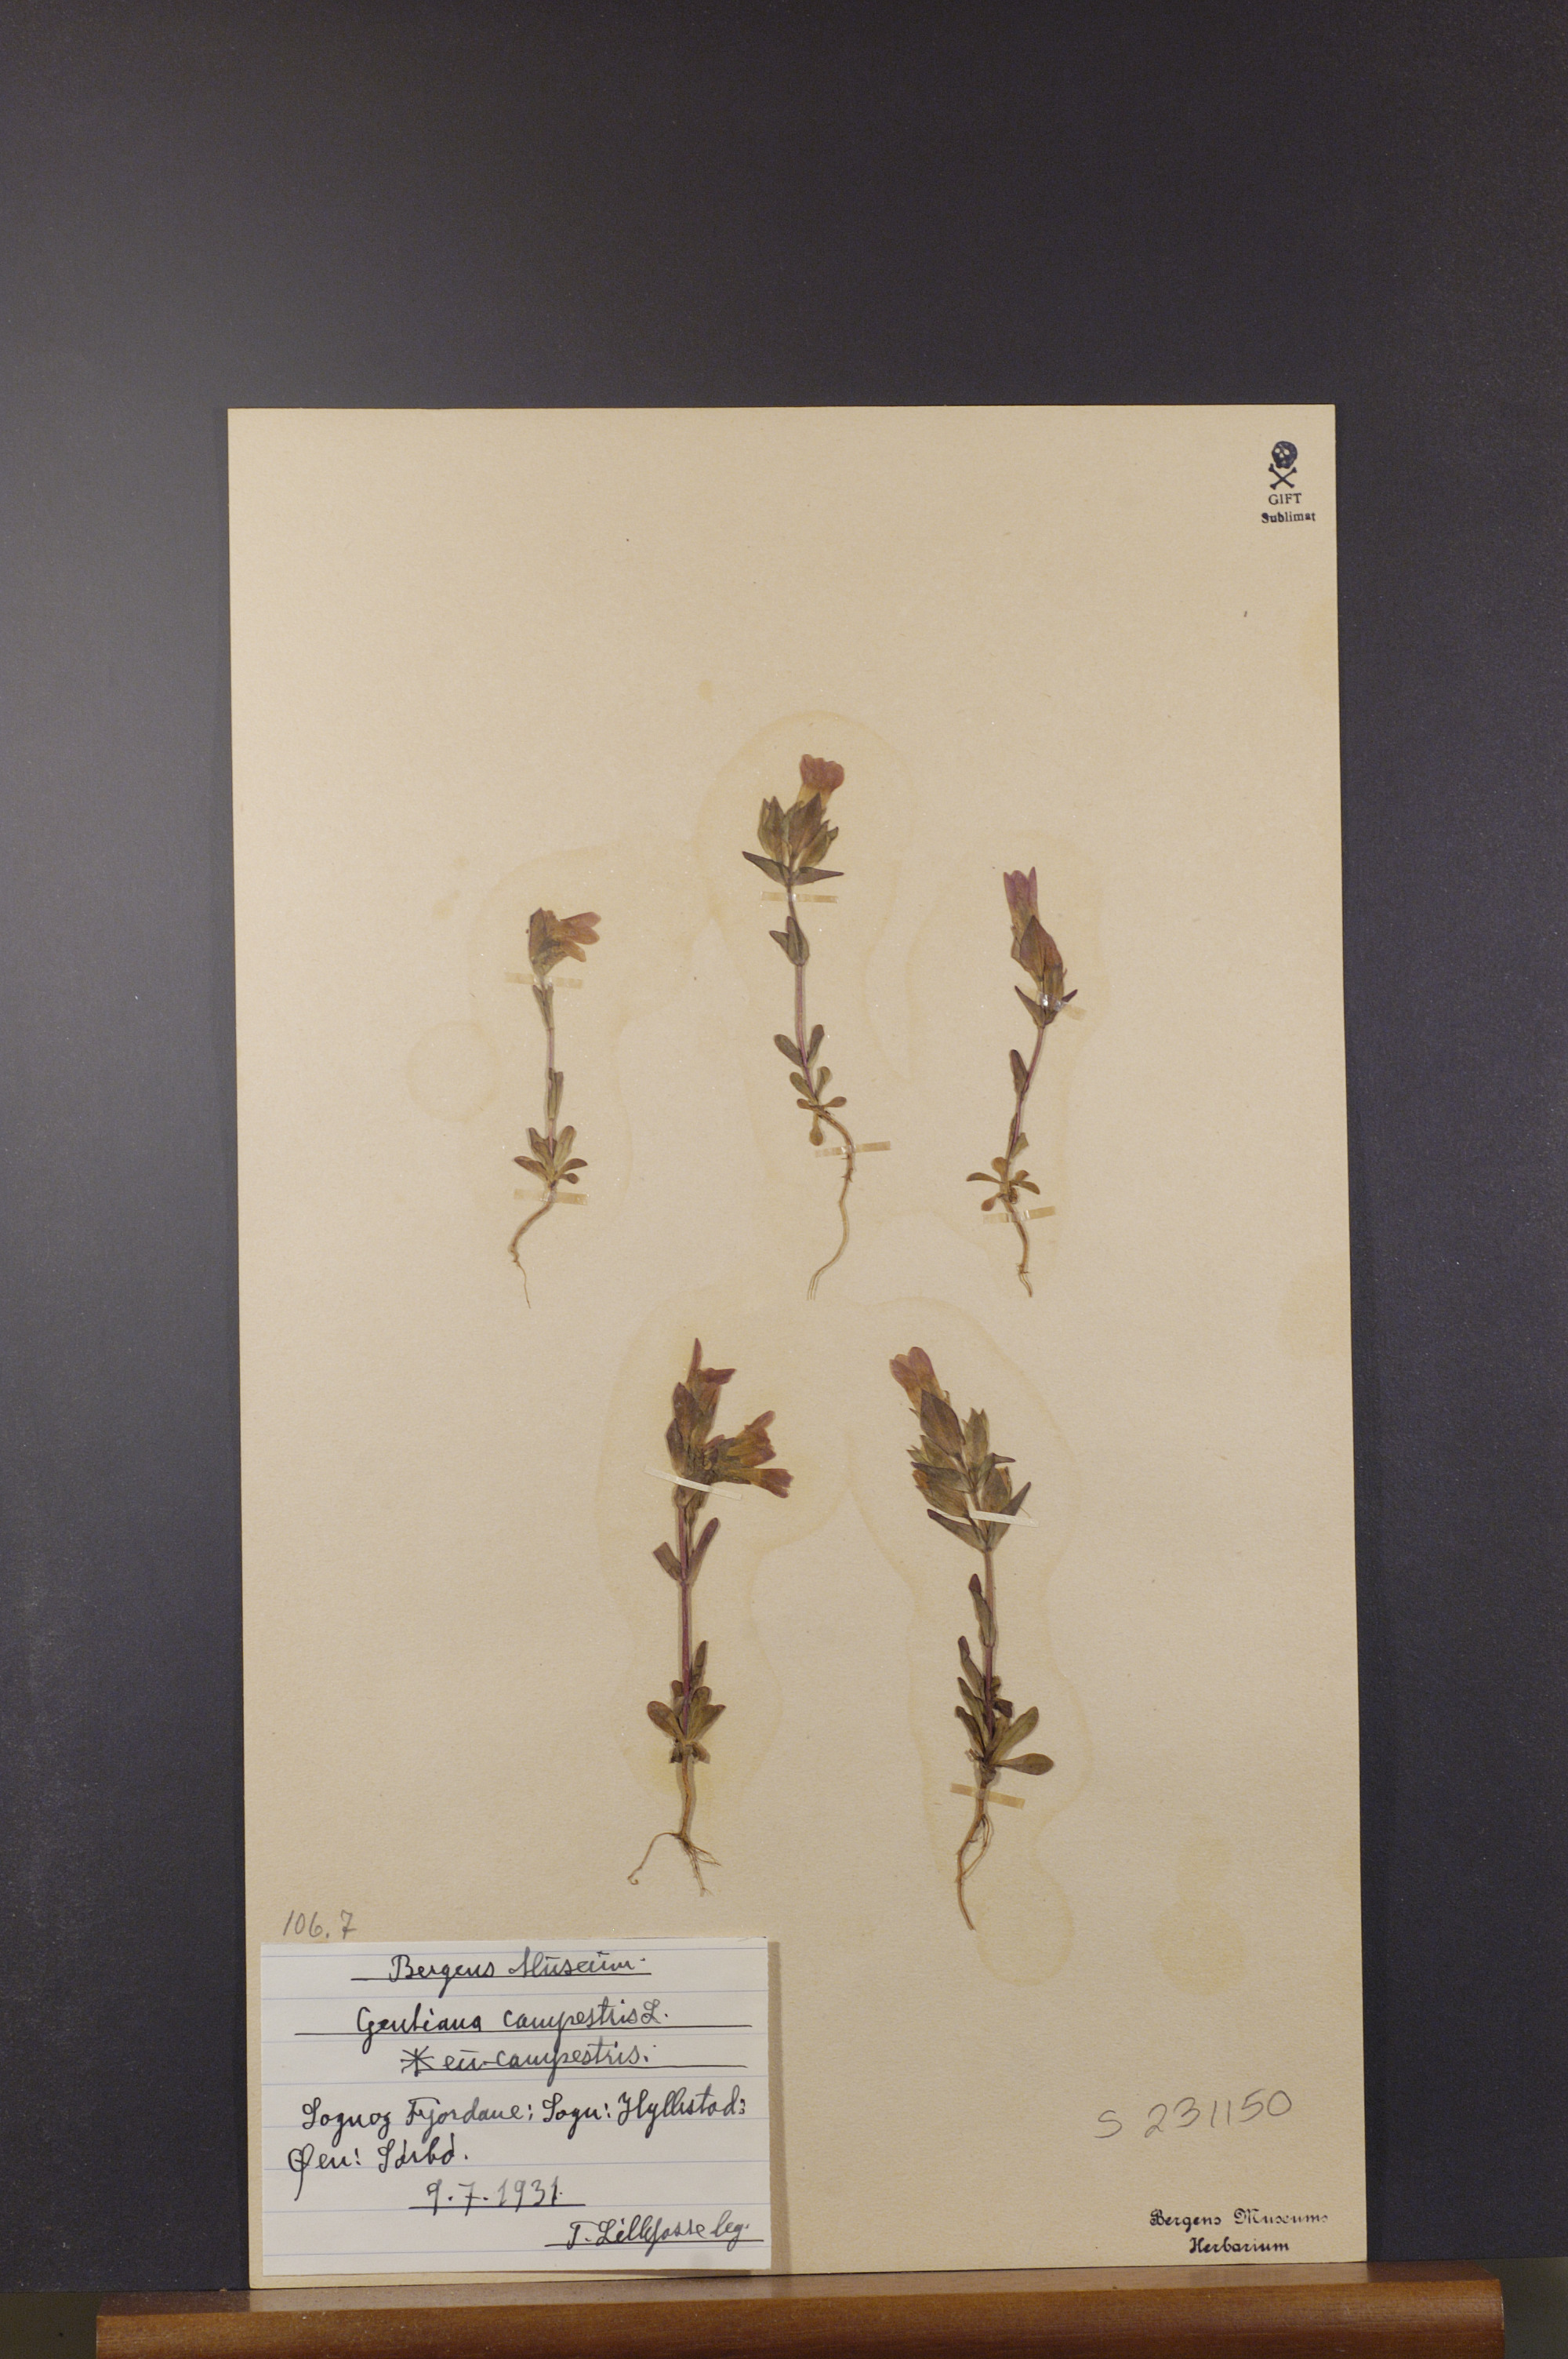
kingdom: Plantae
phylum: Tracheophyta
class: Magnoliopsida
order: Gentianales
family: Gentianaceae
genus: Gentianella
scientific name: Gentianella campestris
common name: Field gentian
